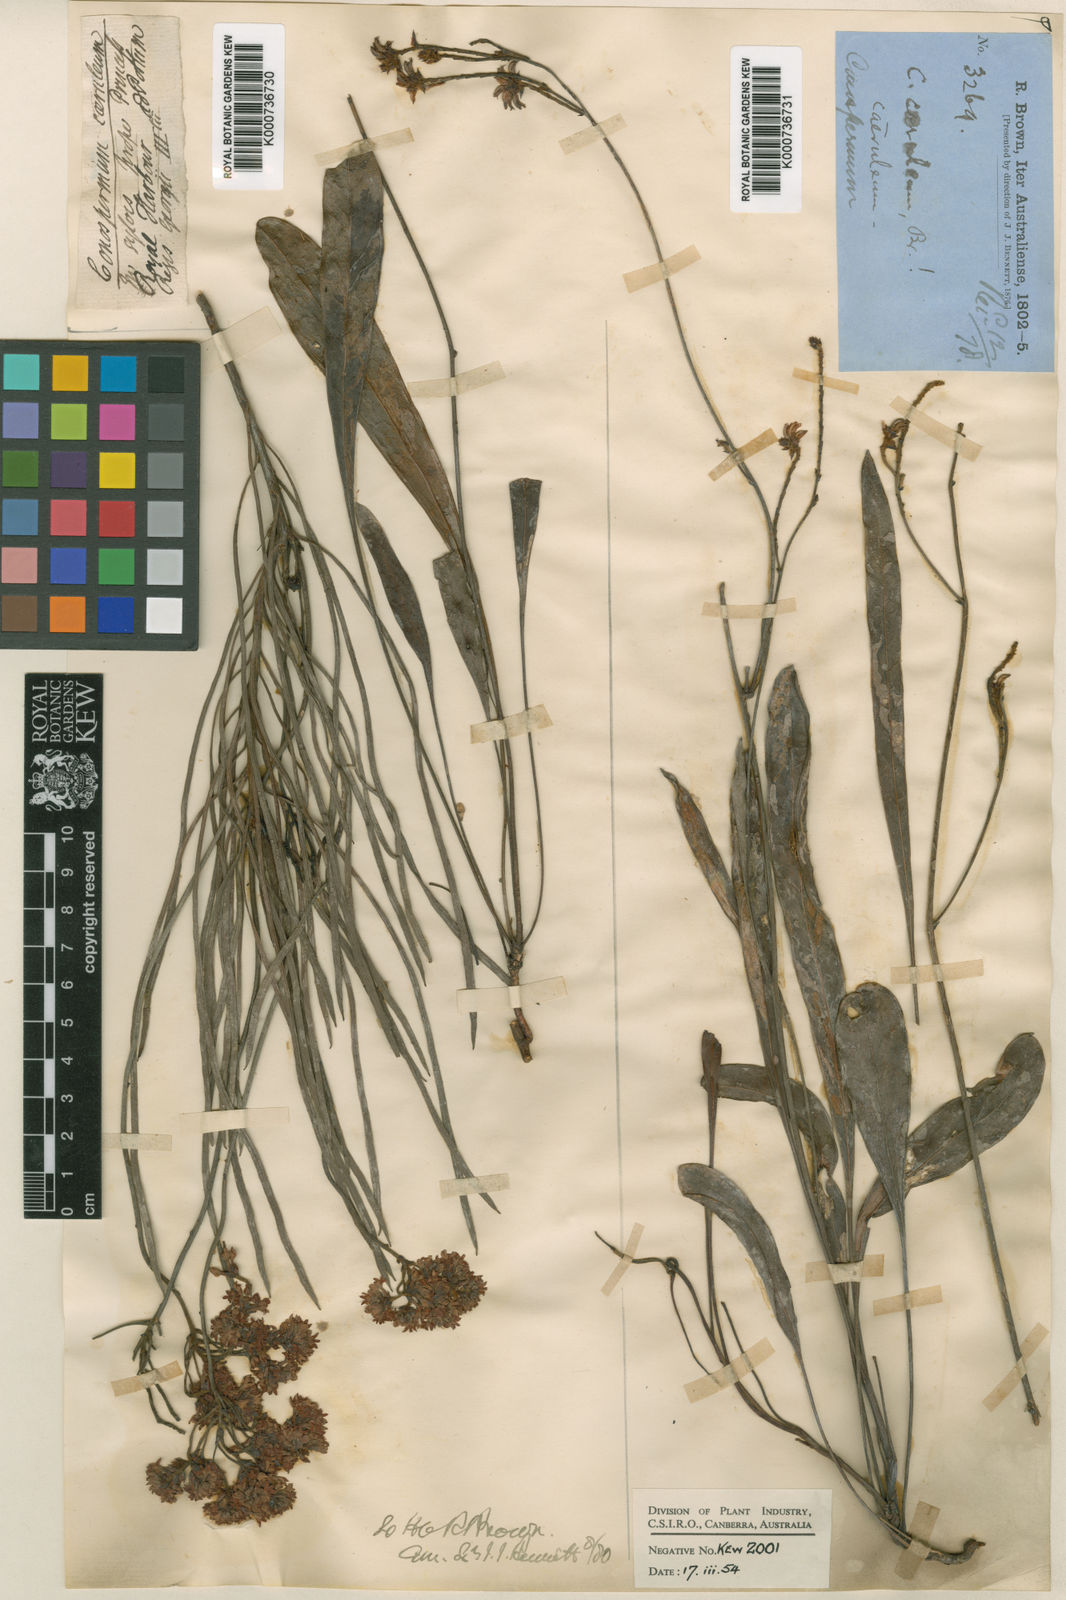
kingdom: Plantae
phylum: Tracheophyta
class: Magnoliopsida
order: Proteales
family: Proteaceae
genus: Conospermum
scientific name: Conospermum caeruleum
